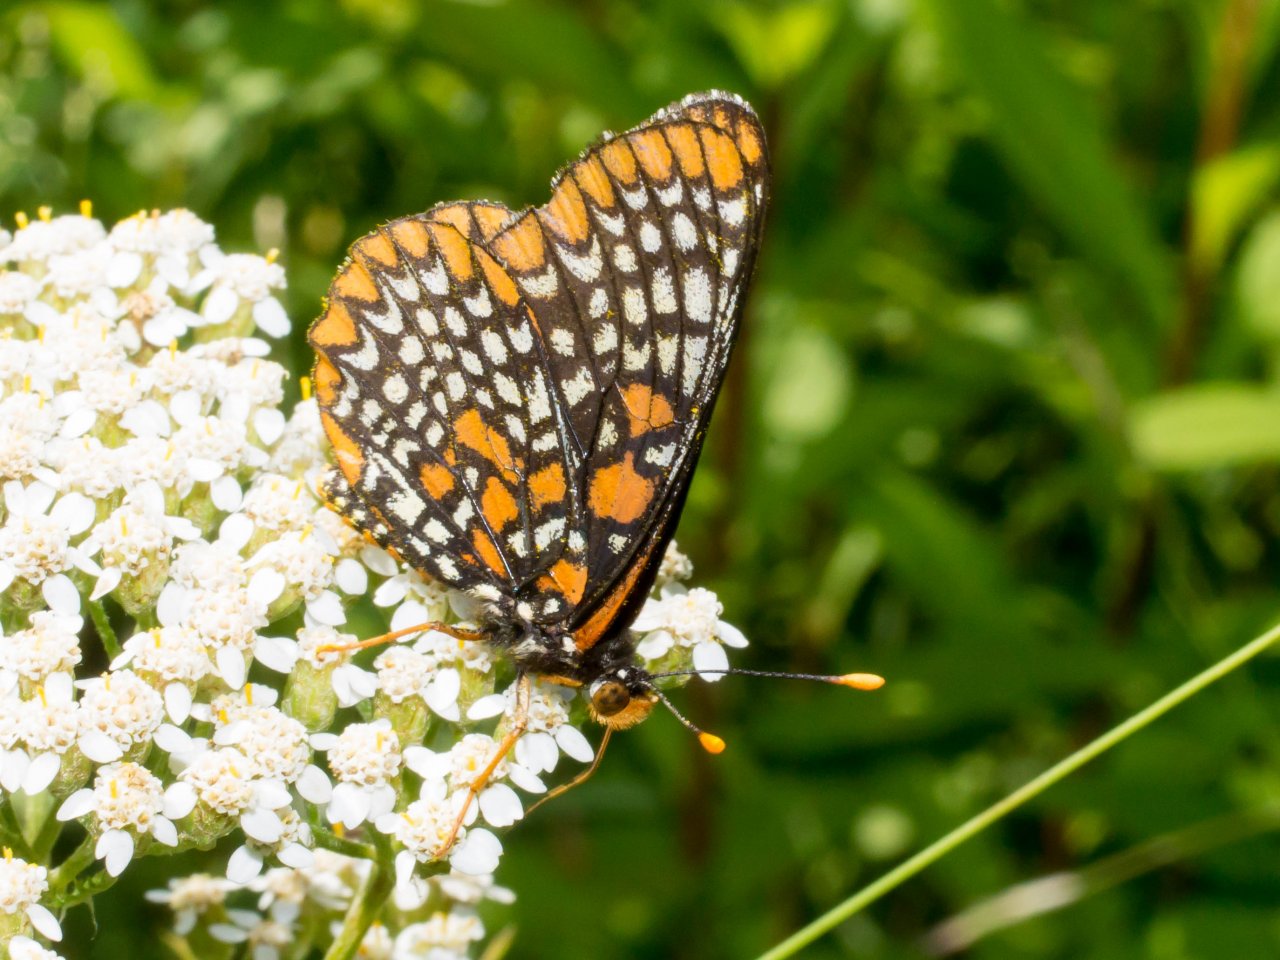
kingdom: Animalia
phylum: Arthropoda
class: Insecta
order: Lepidoptera
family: Nymphalidae
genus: Euphydryas
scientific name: Euphydryas phaeton
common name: Baltimore Checkerspot
